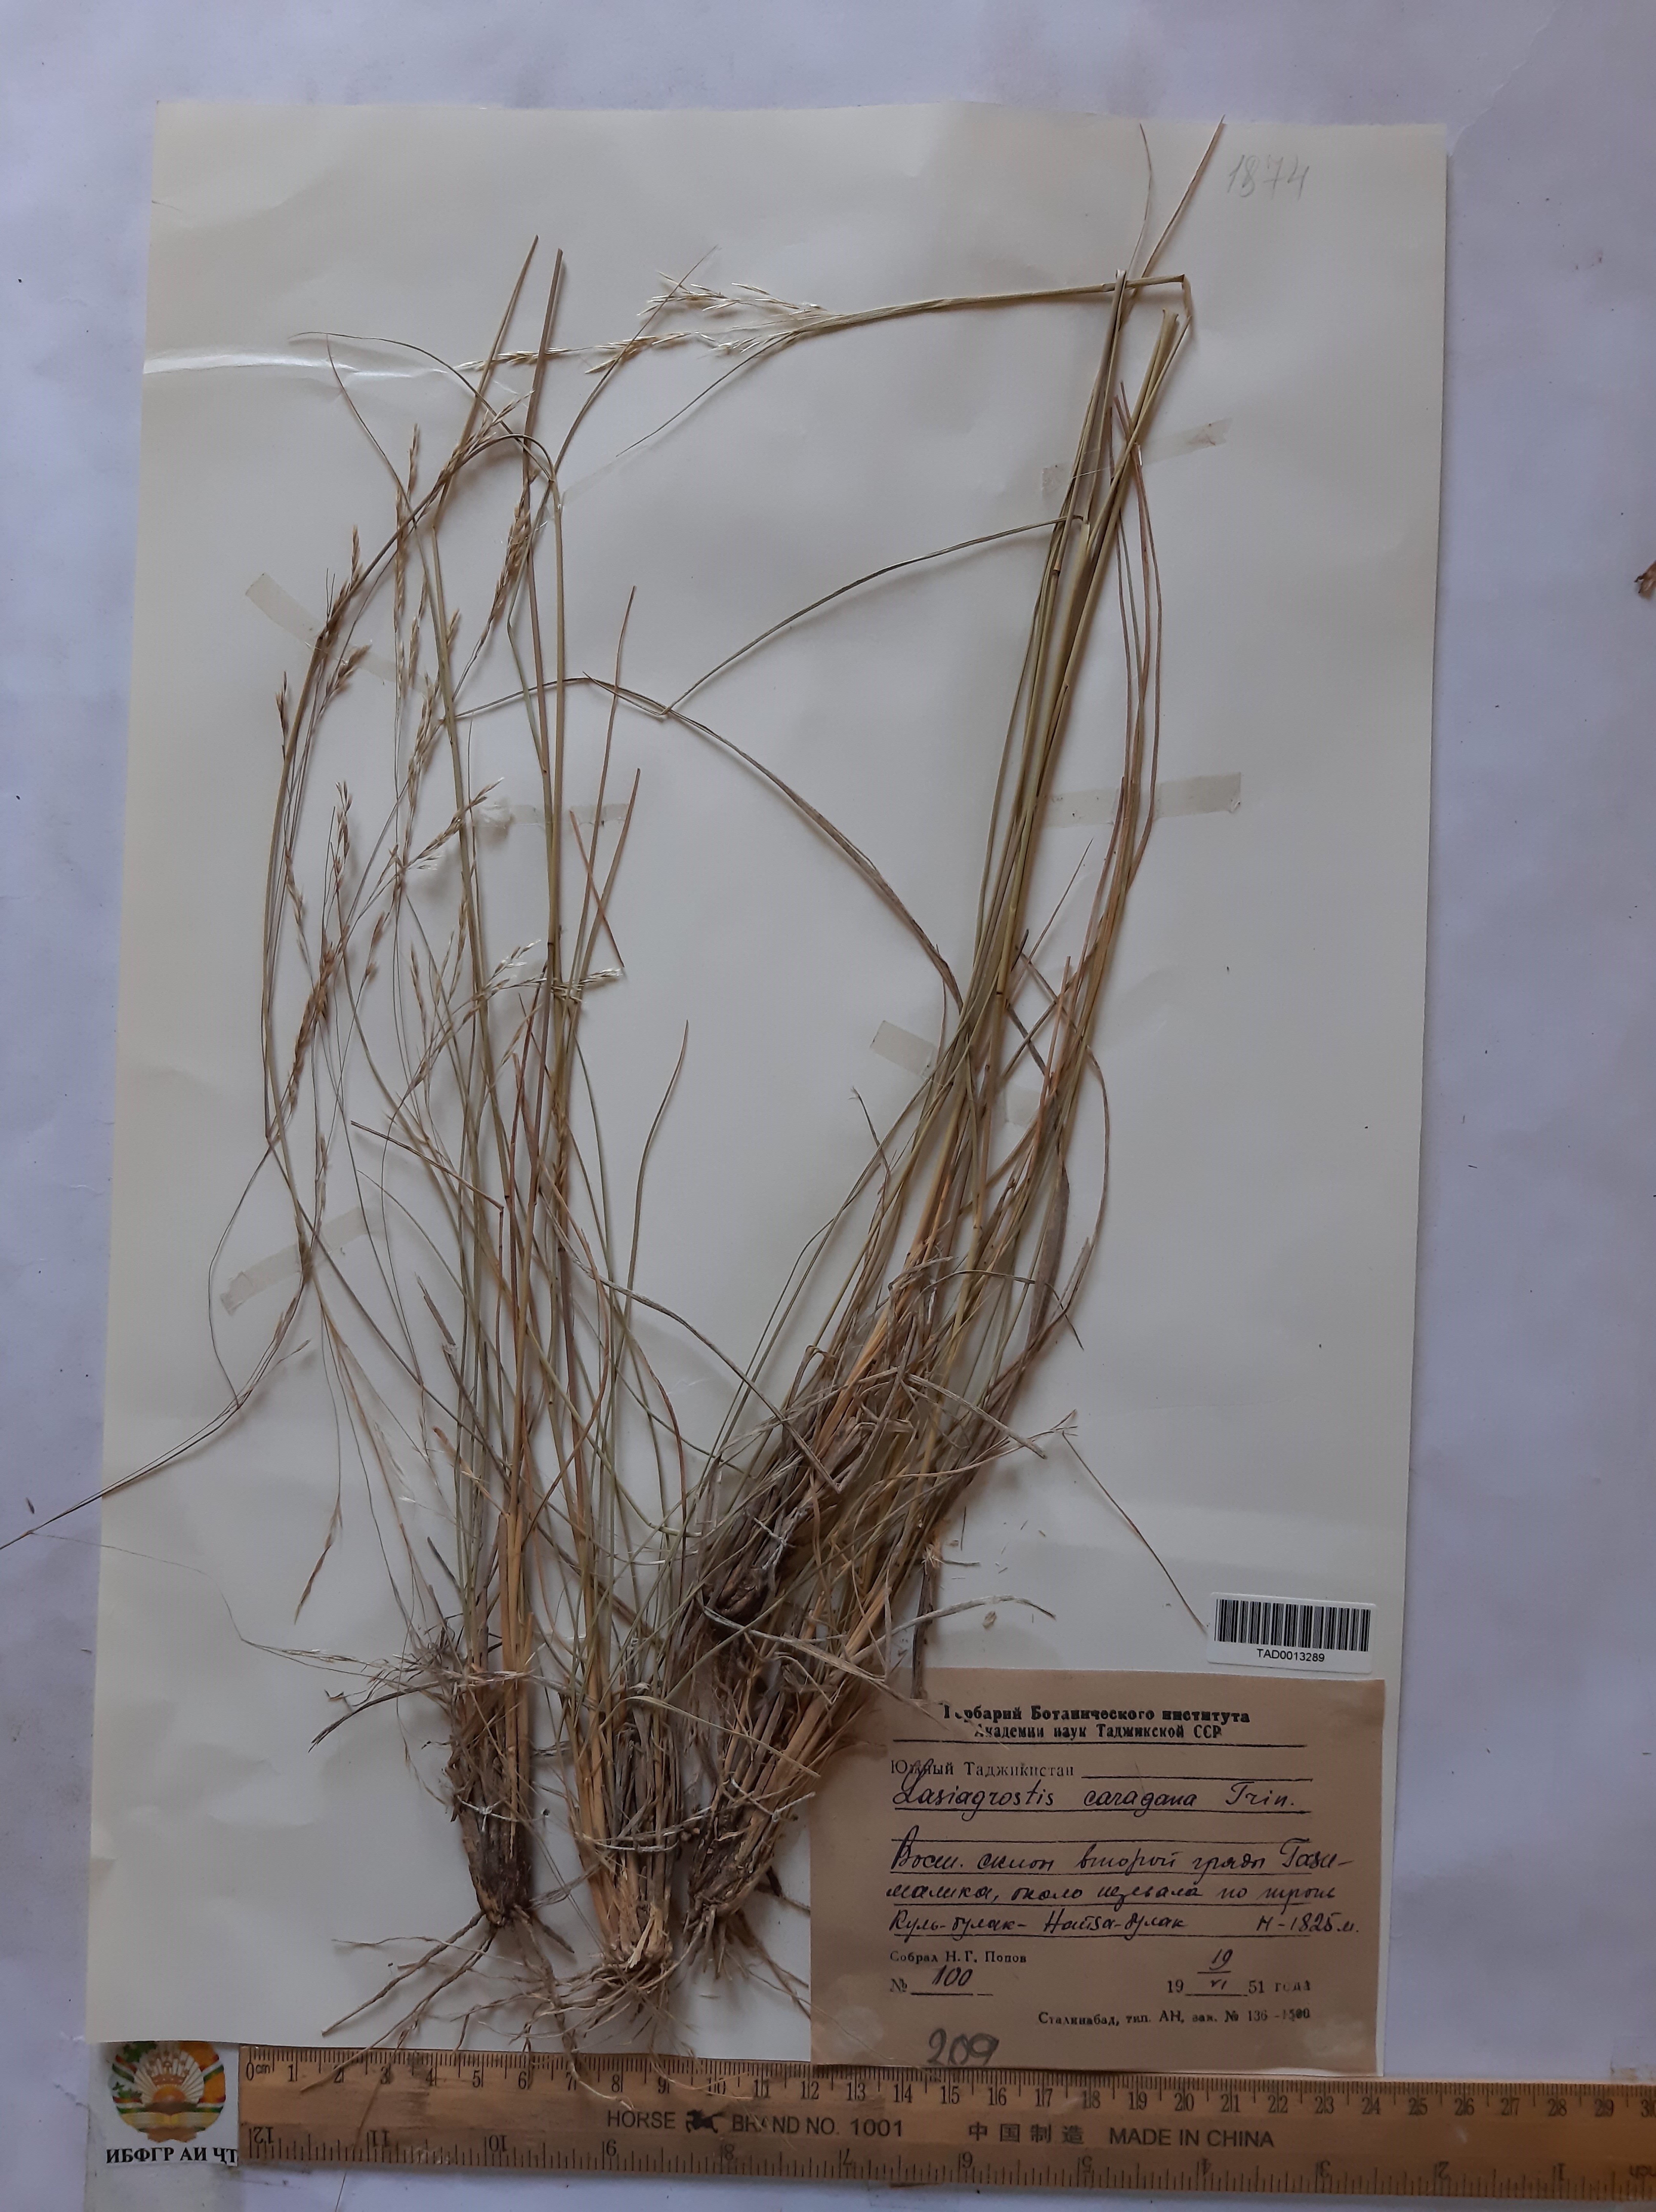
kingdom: Plantae
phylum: Tracheophyta
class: Liliopsida
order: Poales
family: Poaceae
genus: Stipa
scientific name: Stipa conferta
